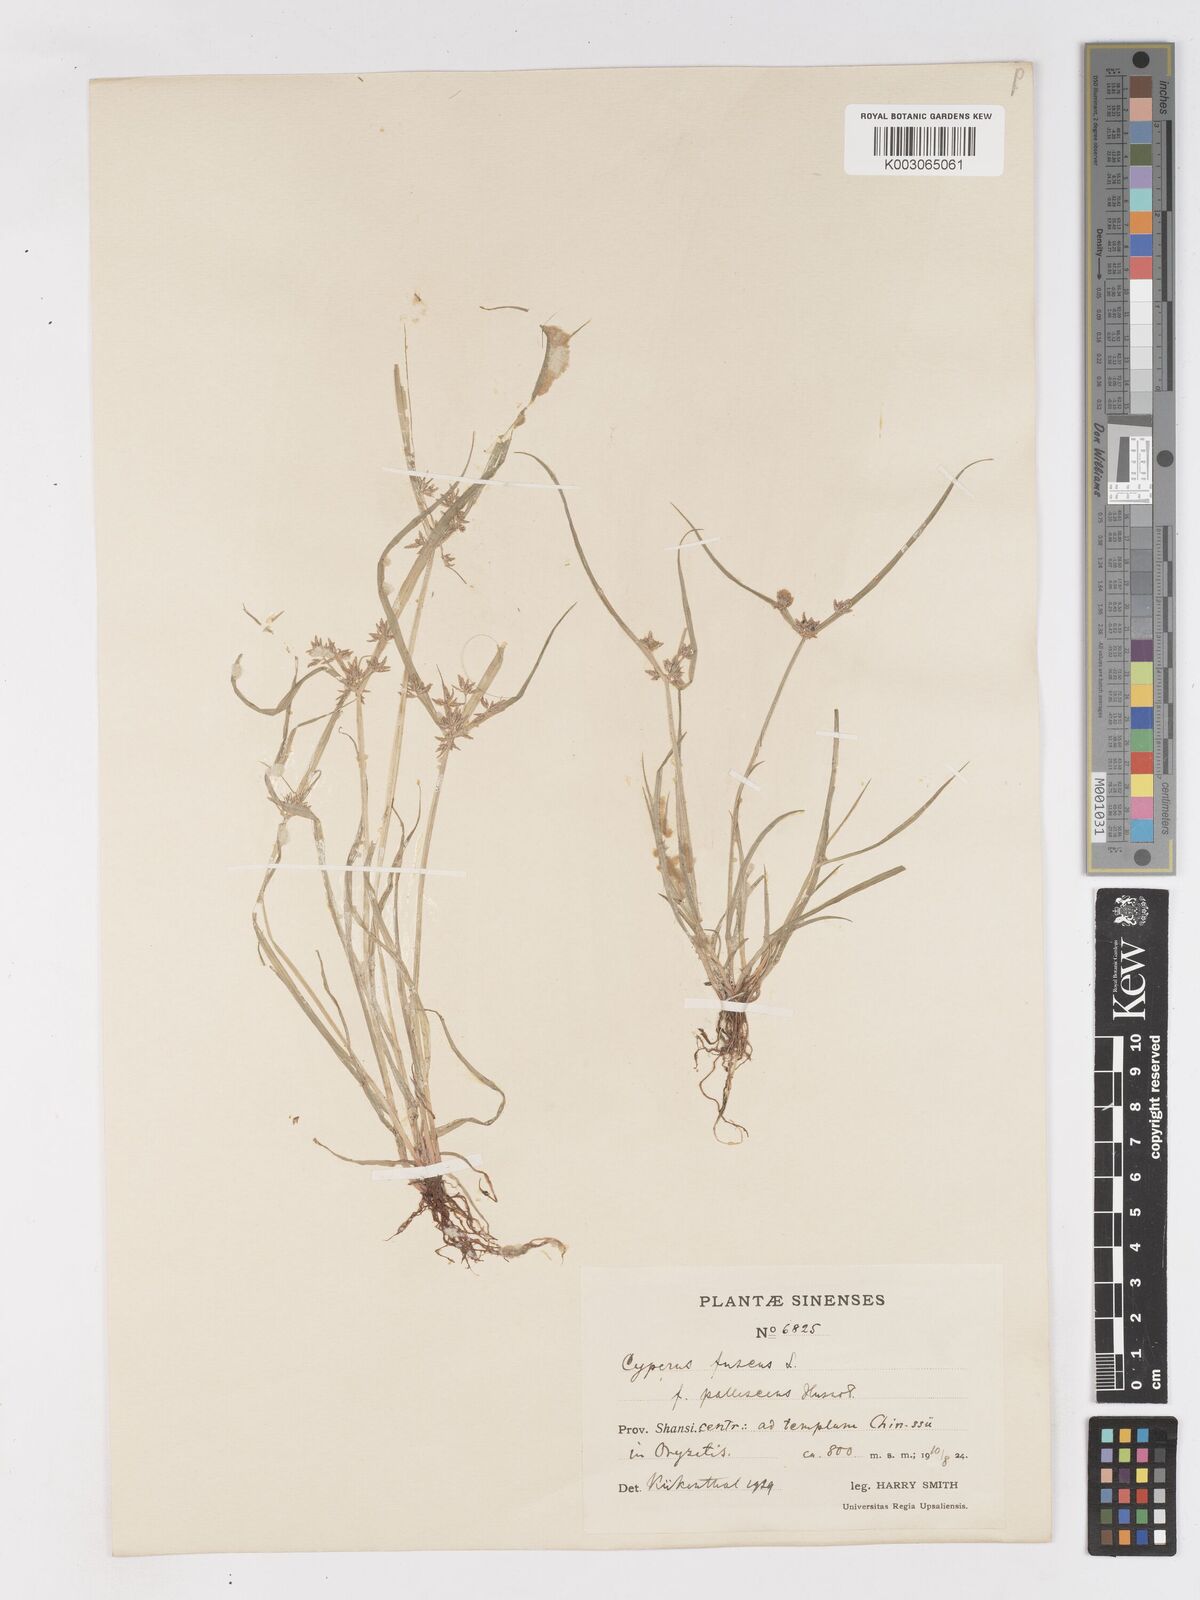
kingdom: Plantae
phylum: Tracheophyta
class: Liliopsida
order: Poales
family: Cyperaceae
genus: Cyperus
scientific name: Cyperus fuscus
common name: Brown galingale
